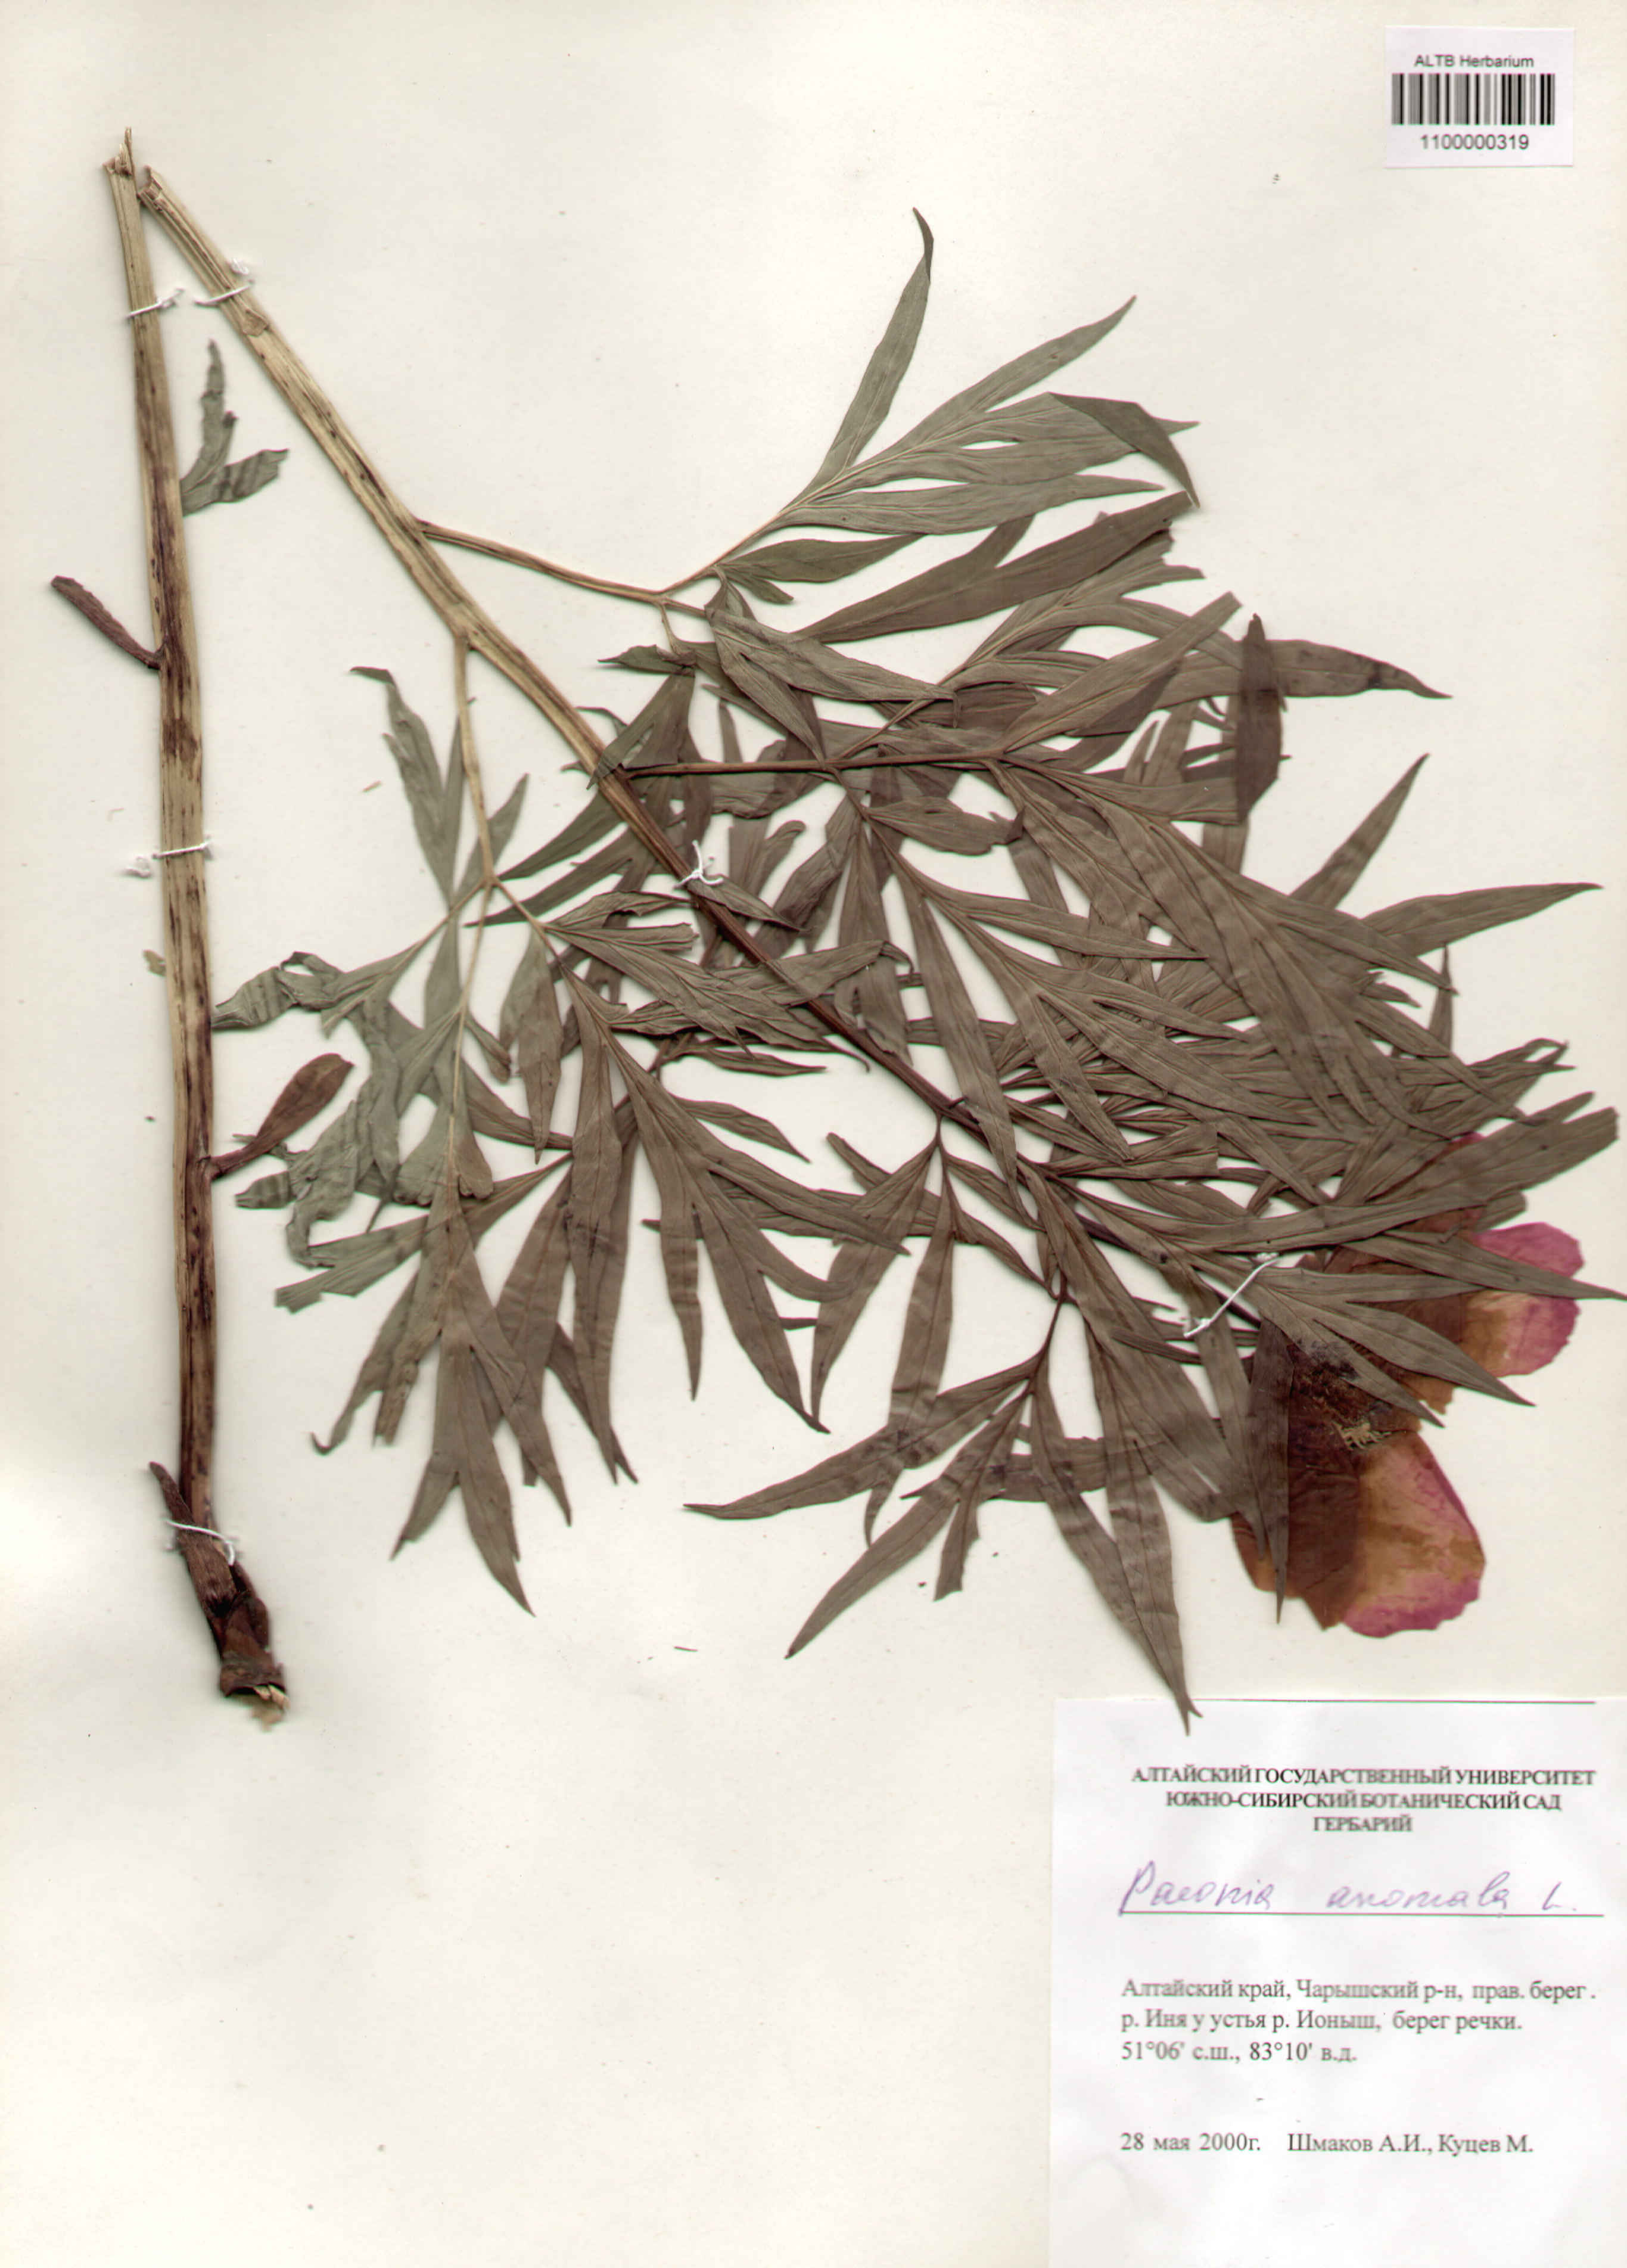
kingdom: Plantae
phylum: Tracheophyta
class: Magnoliopsida
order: Saxifragales
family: Paeoniaceae
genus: Paeonia
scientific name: Paeonia anomala
